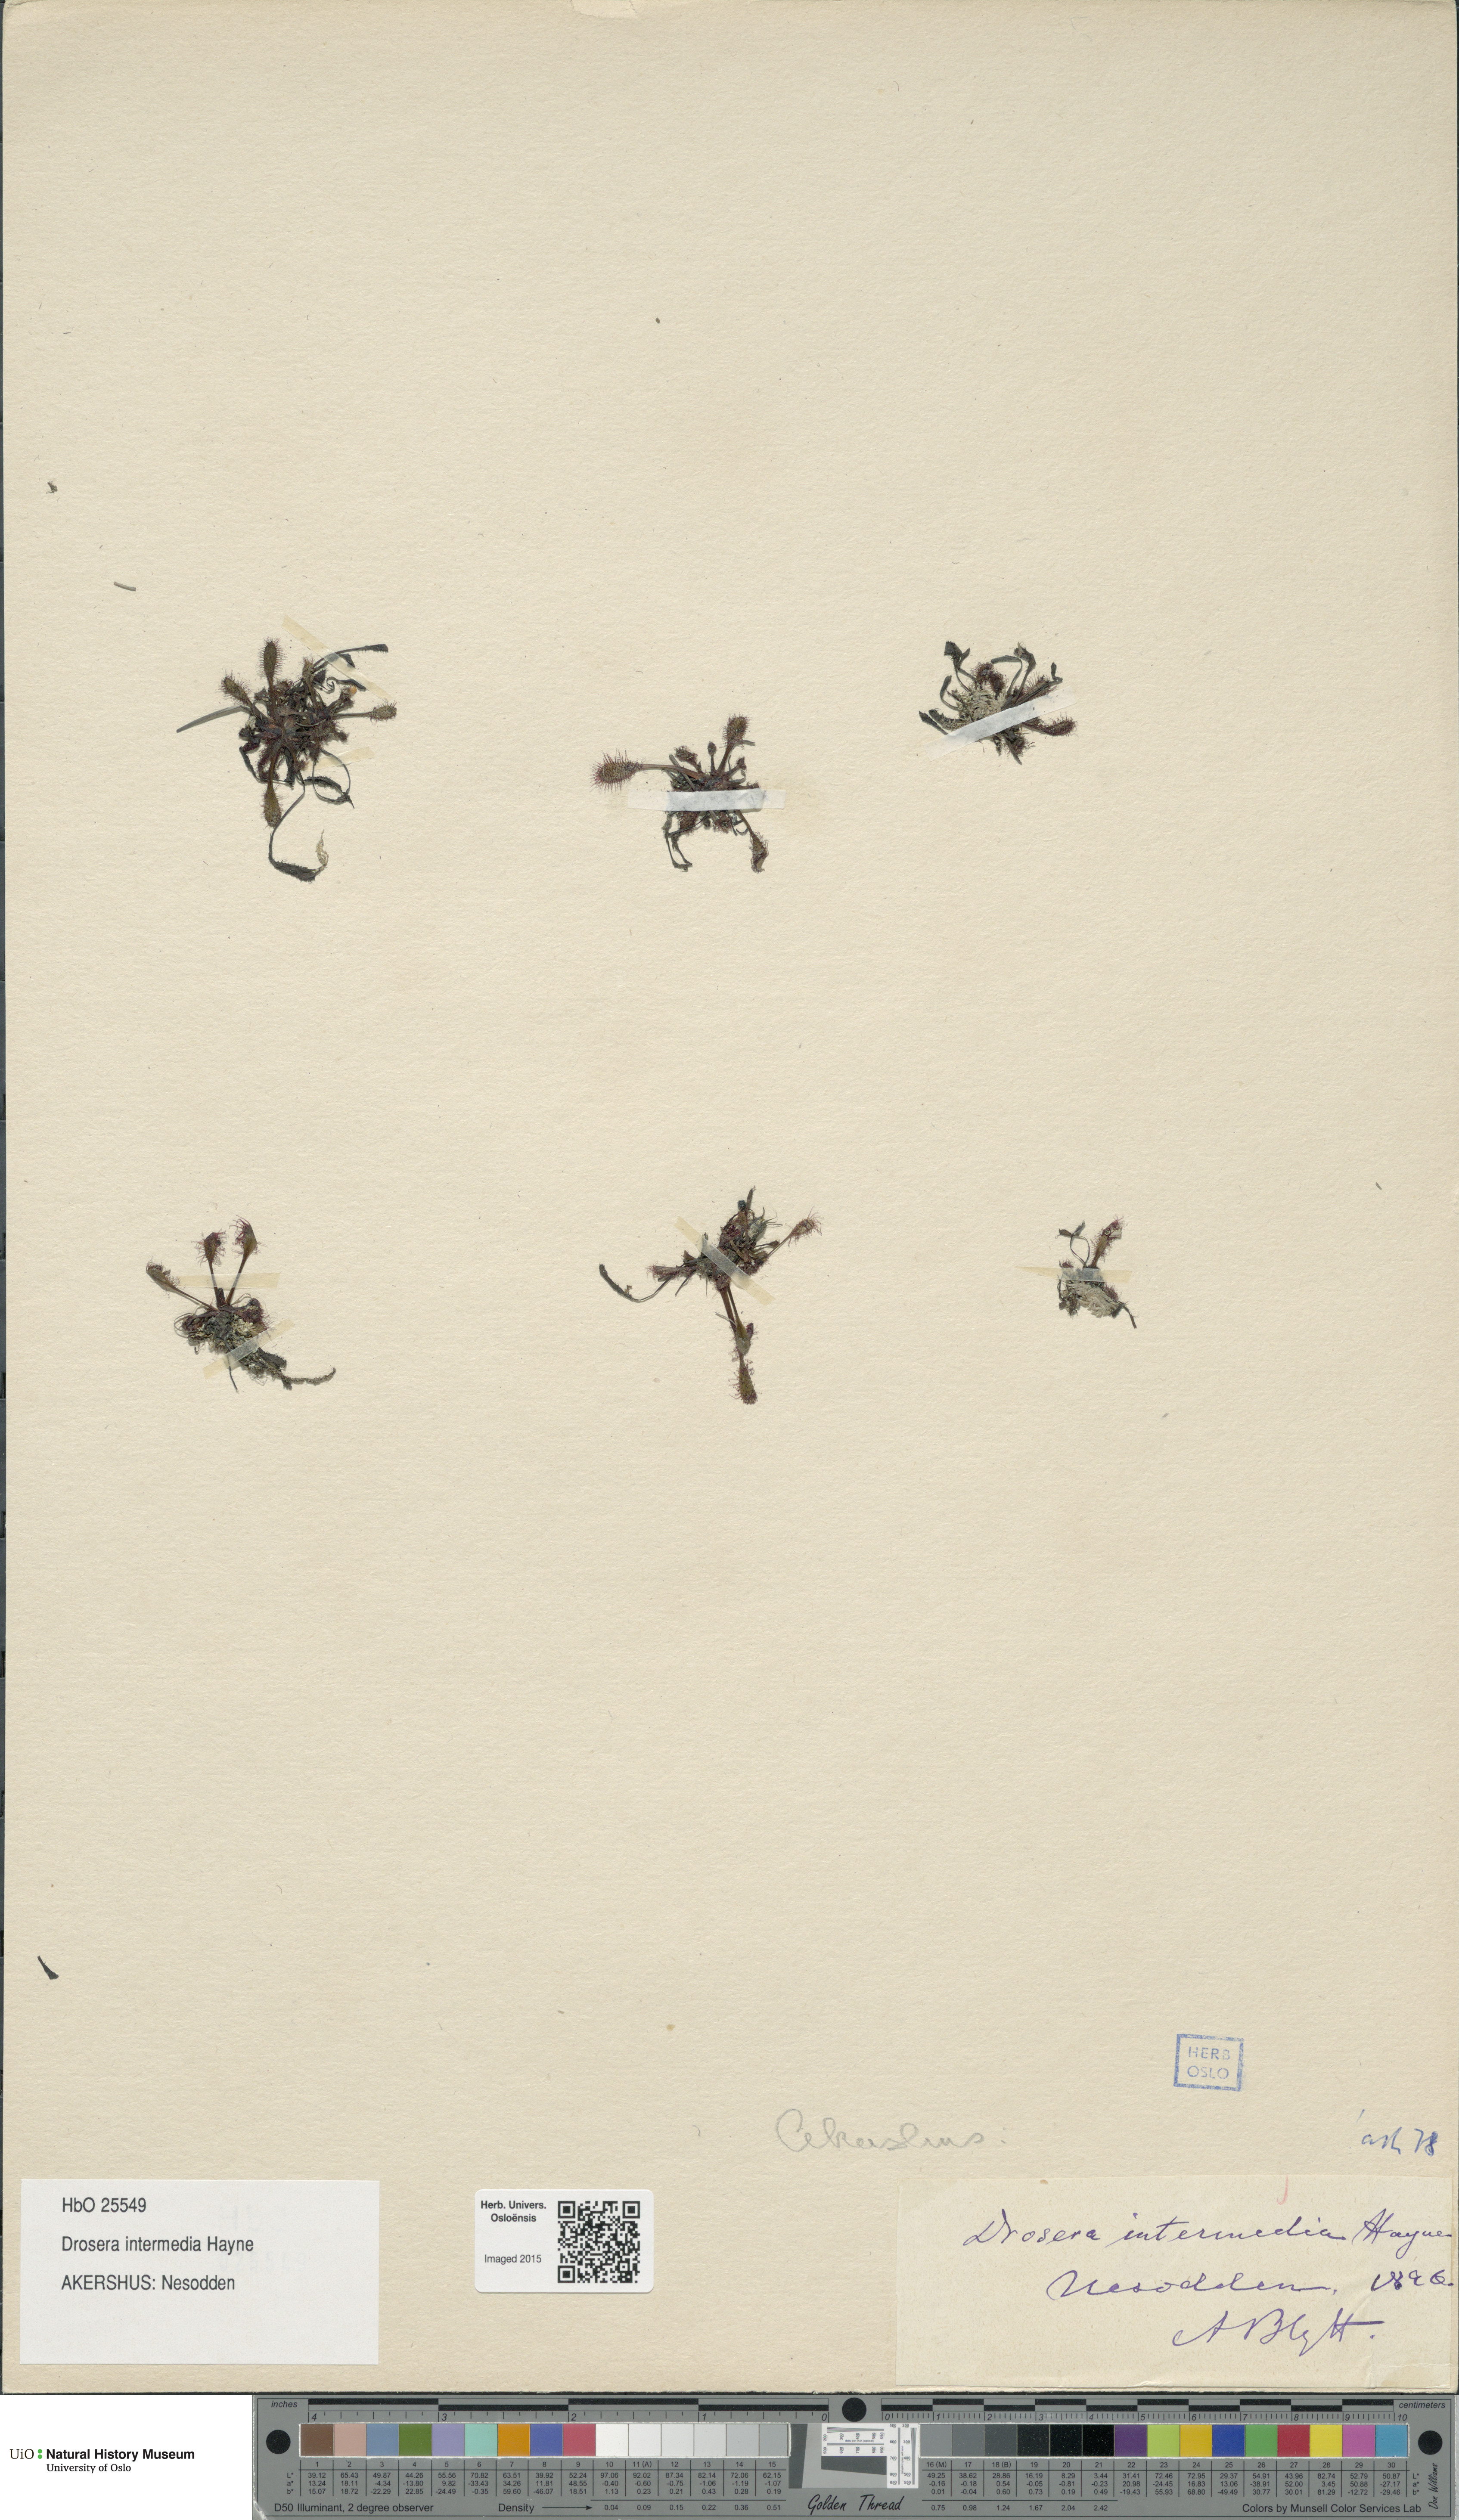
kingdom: Plantae
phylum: Tracheophyta
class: Magnoliopsida
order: Caryophyllales
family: Droseraceae
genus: Drosera
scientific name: Drosera intermedia
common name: Oblong-leaved sundew
